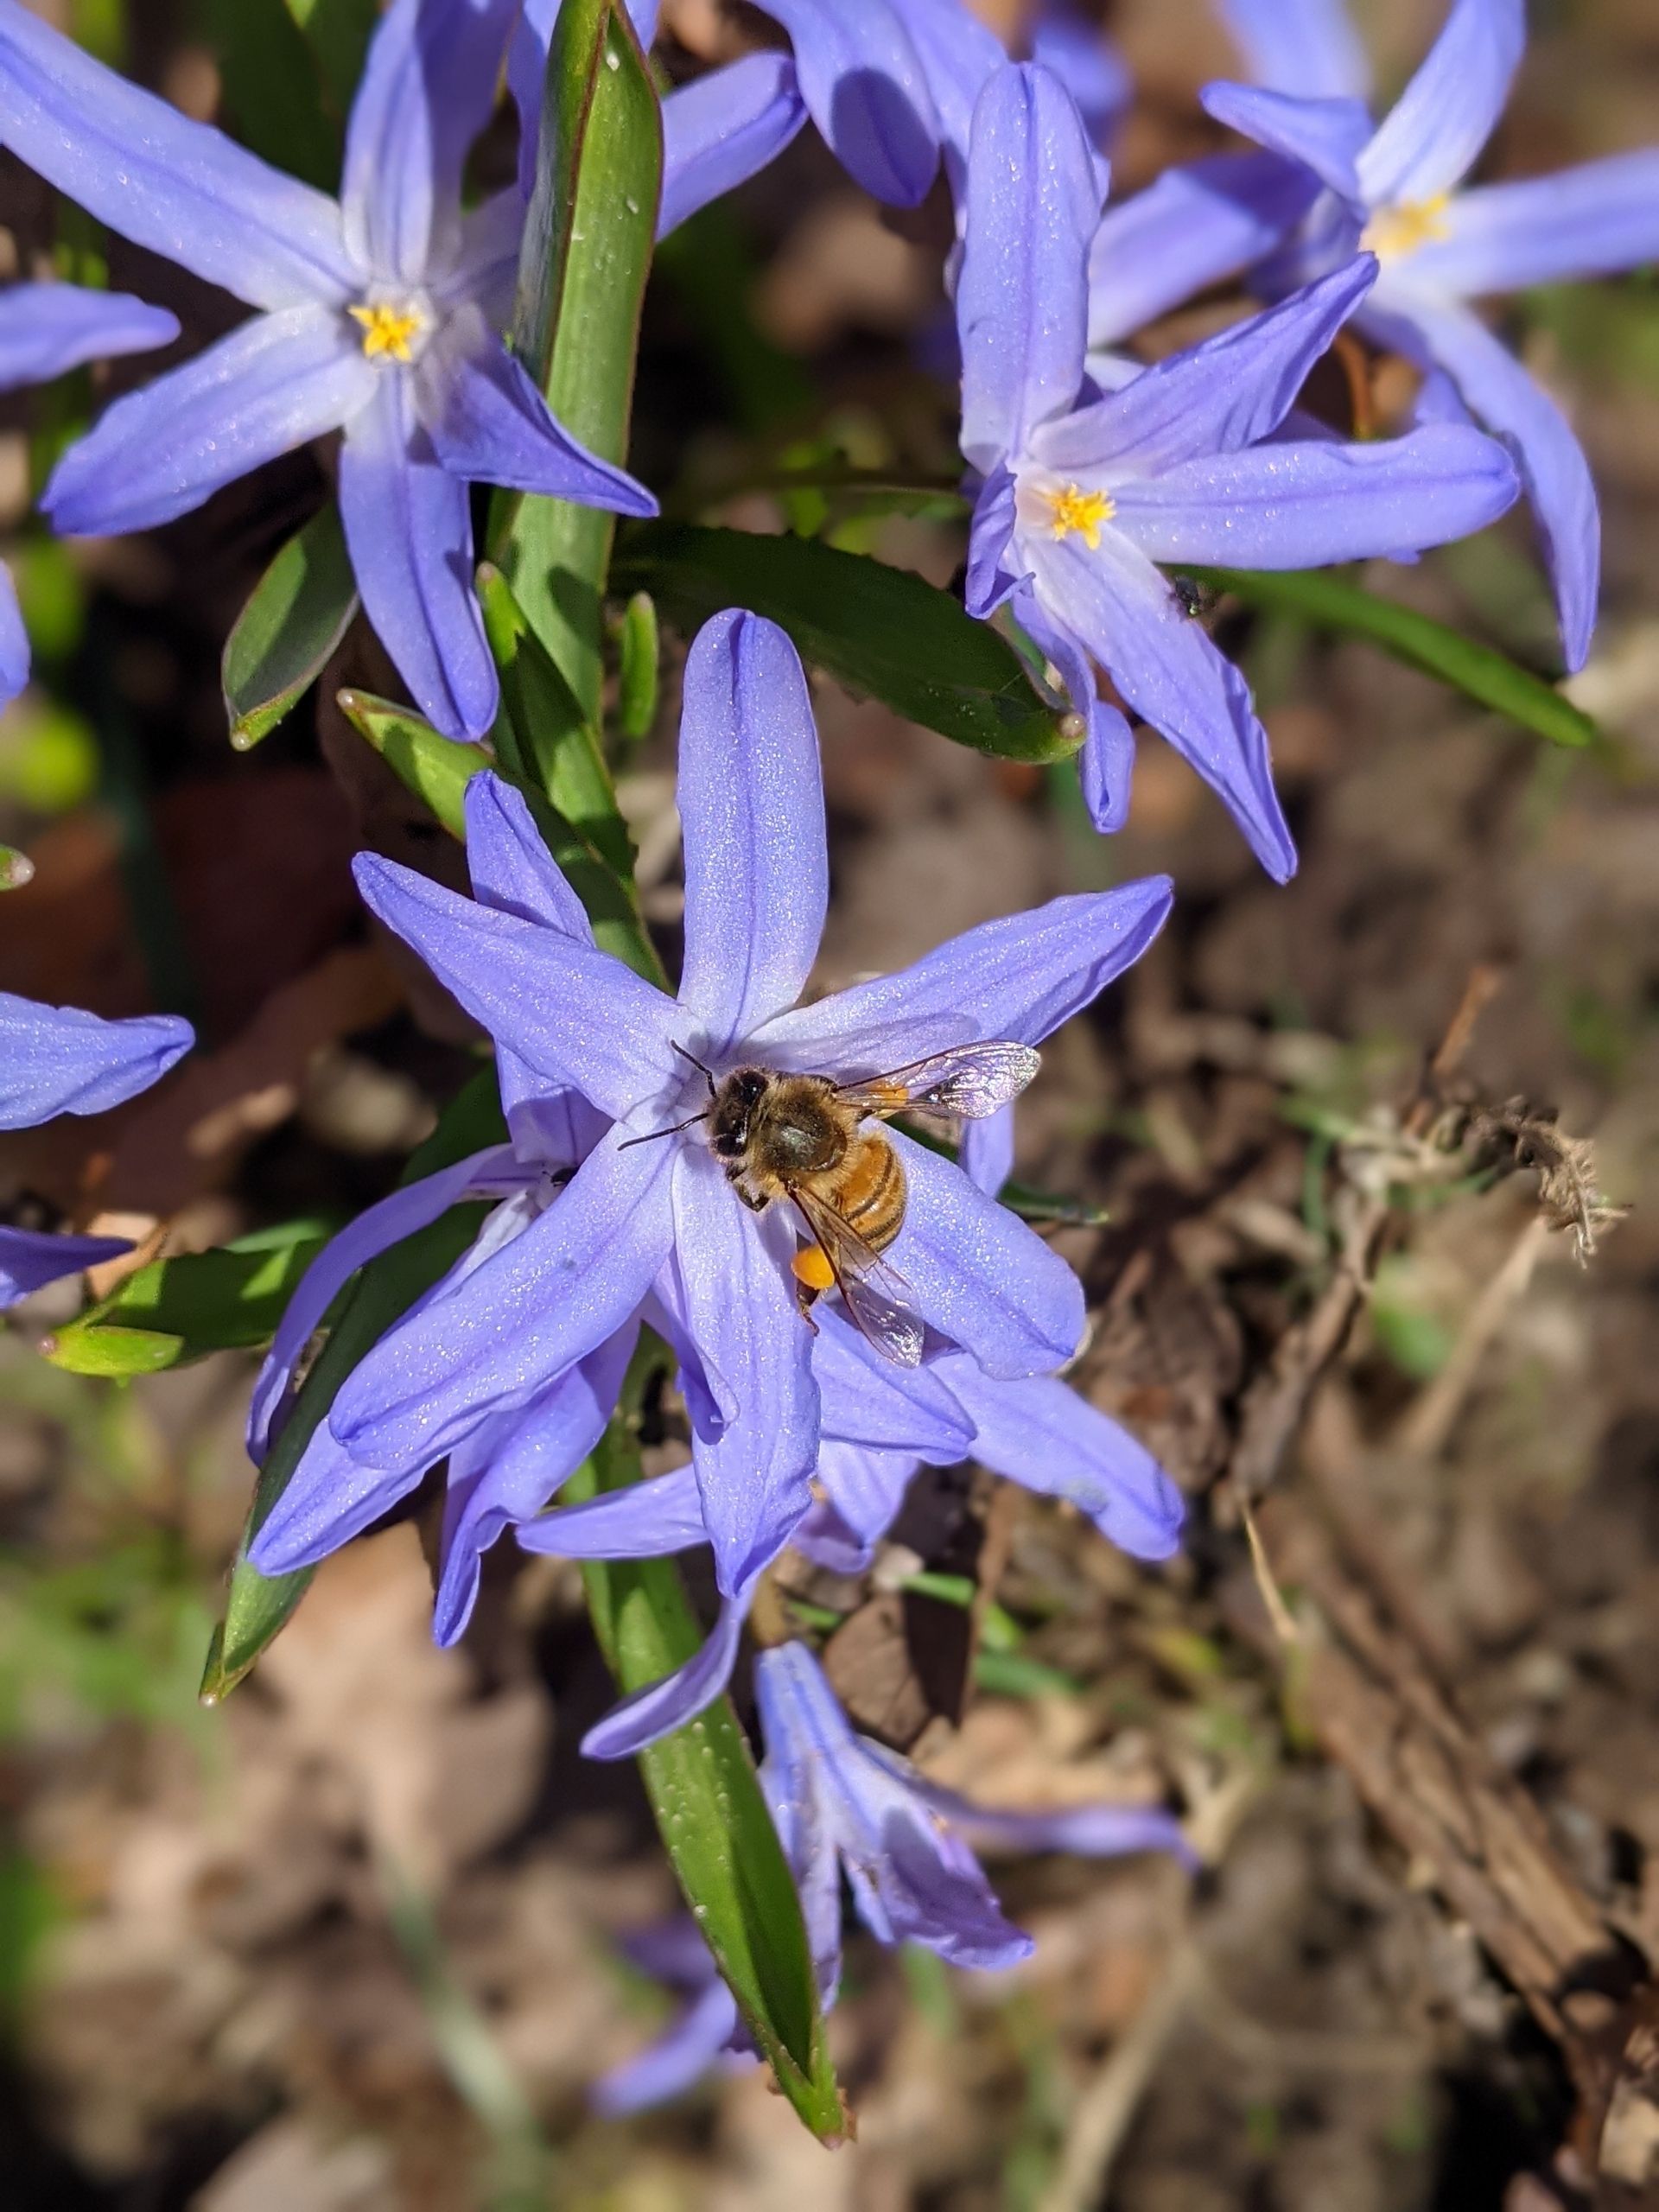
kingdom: Animalia
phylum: Arthropoda
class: Insecta
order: Hymenoptera
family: Apidae
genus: Apis
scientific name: Apis mellifera
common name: Honningbi
